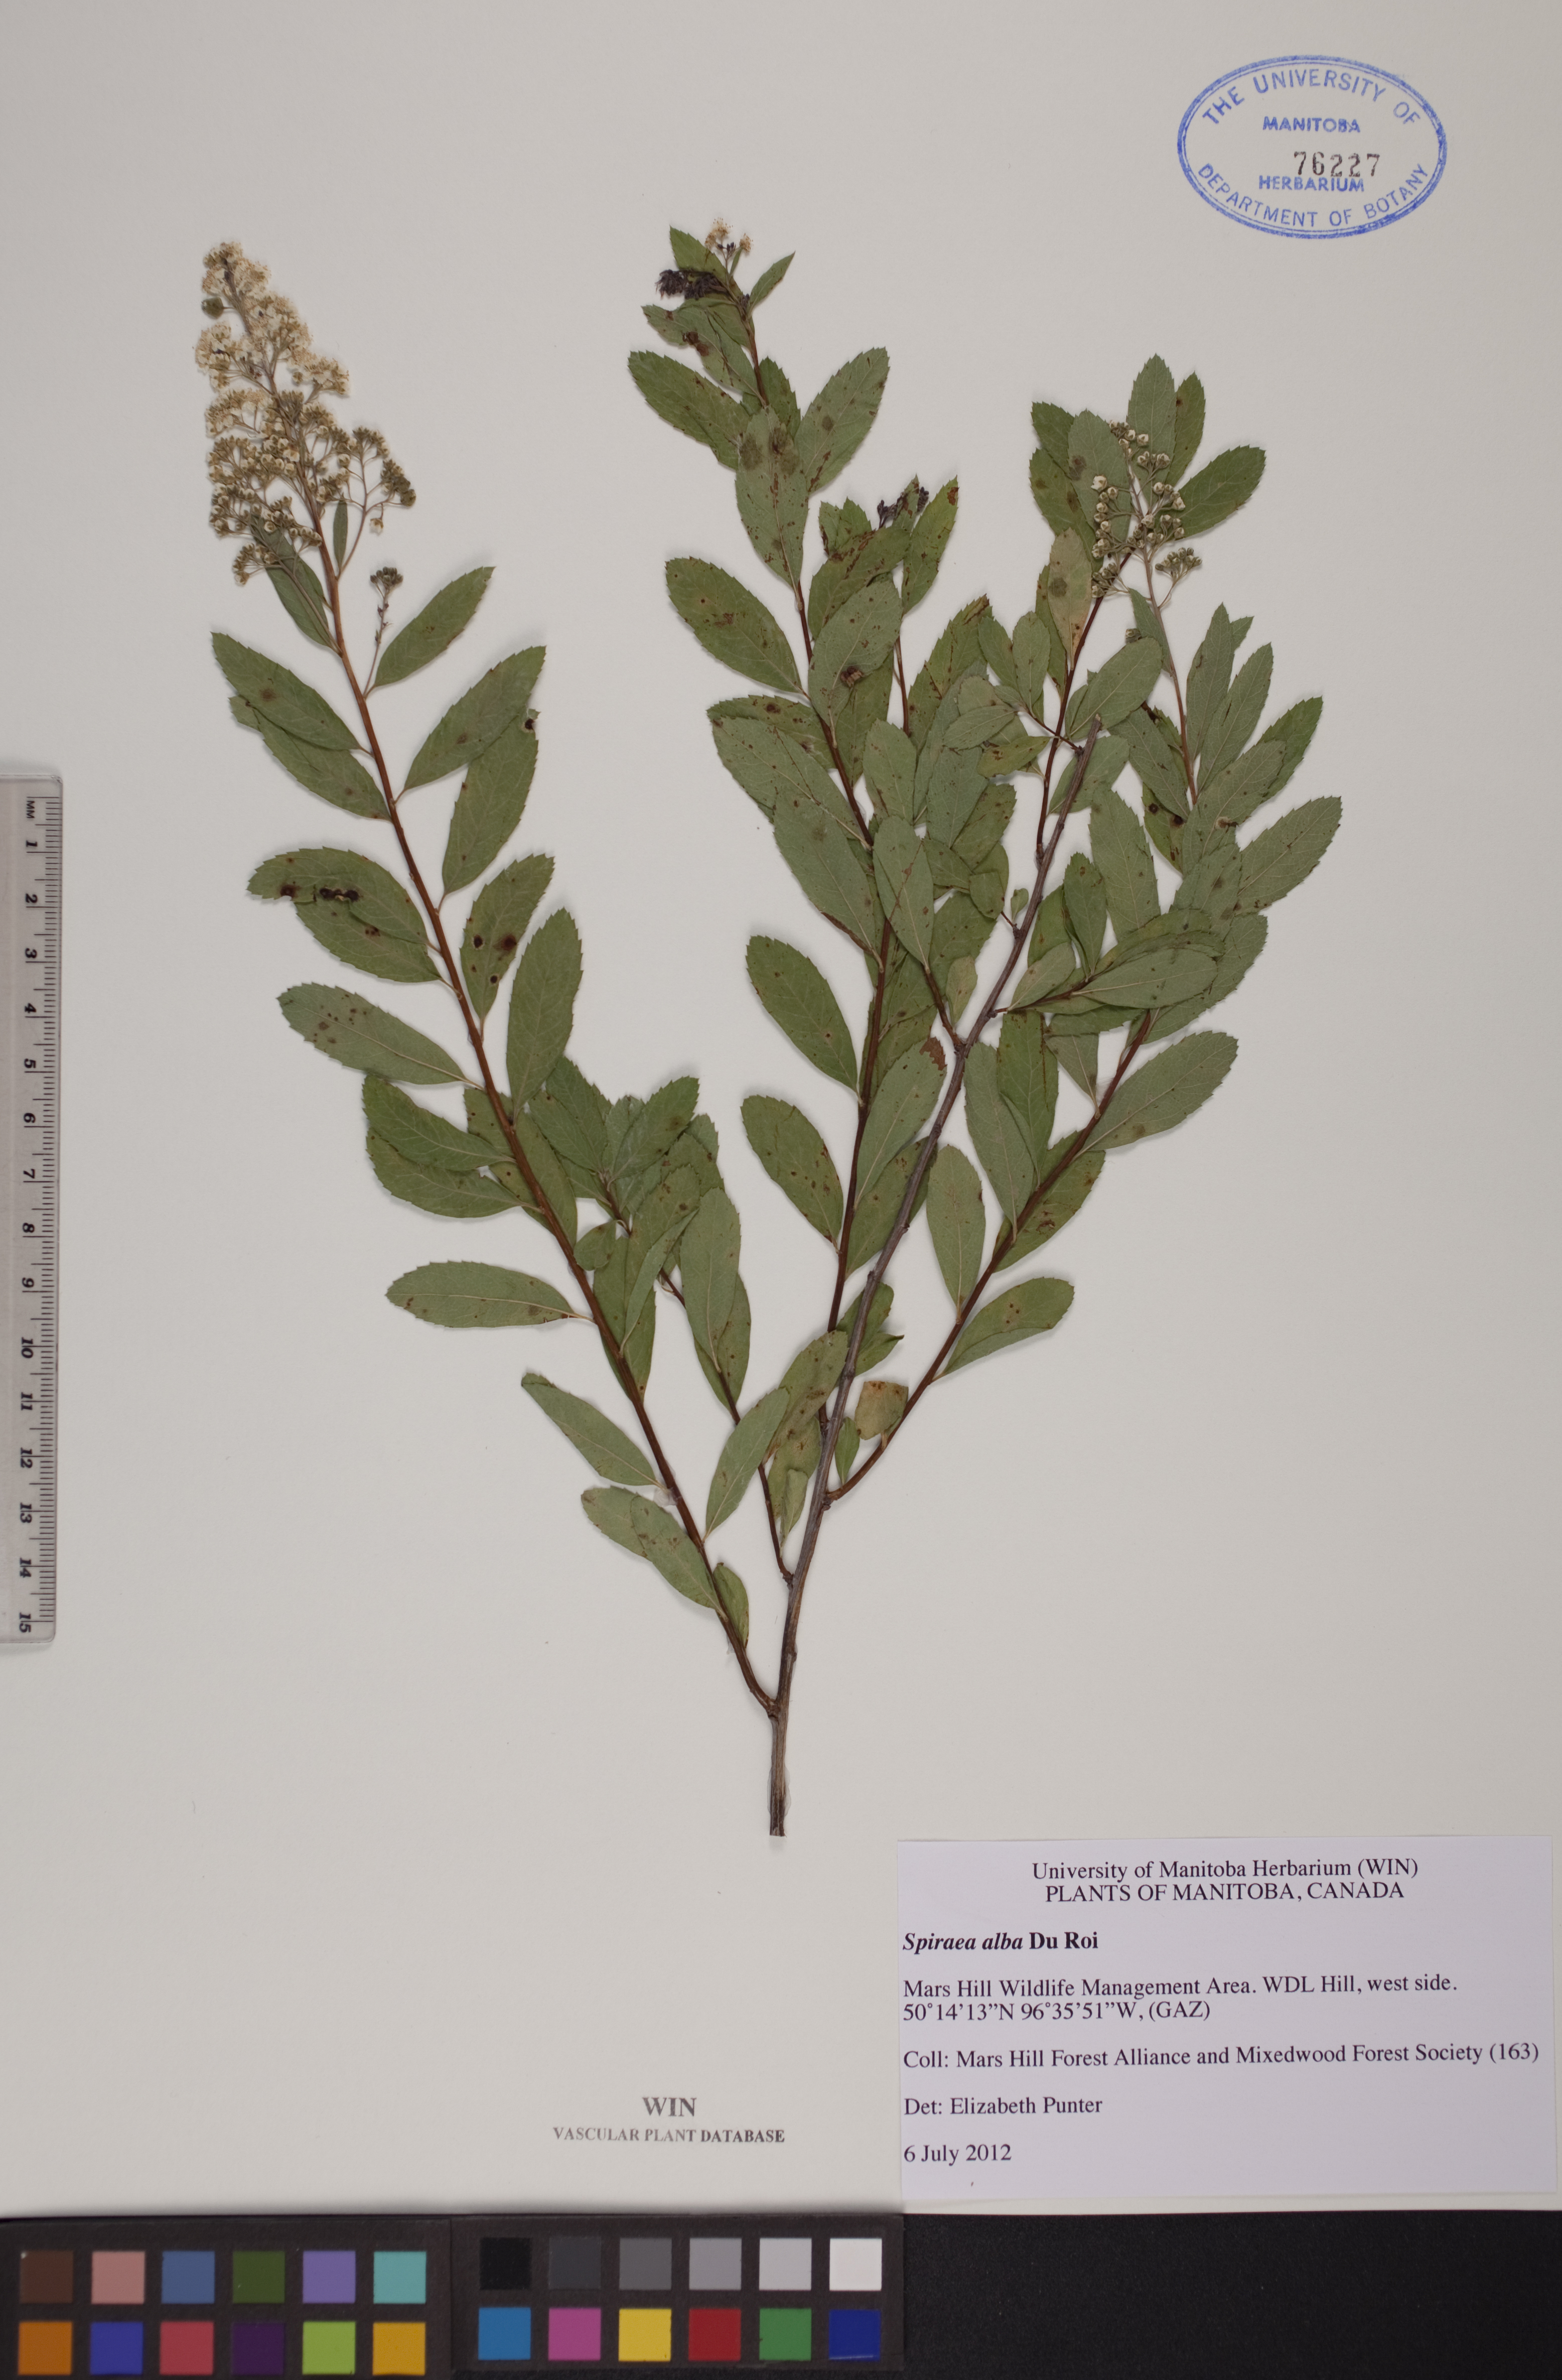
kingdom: Plantae
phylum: Tracheophyta
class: Magnoliopsida
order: Rosales
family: Rosaceae
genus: Spiraea
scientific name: Spiraea alba
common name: Pale bridewort
